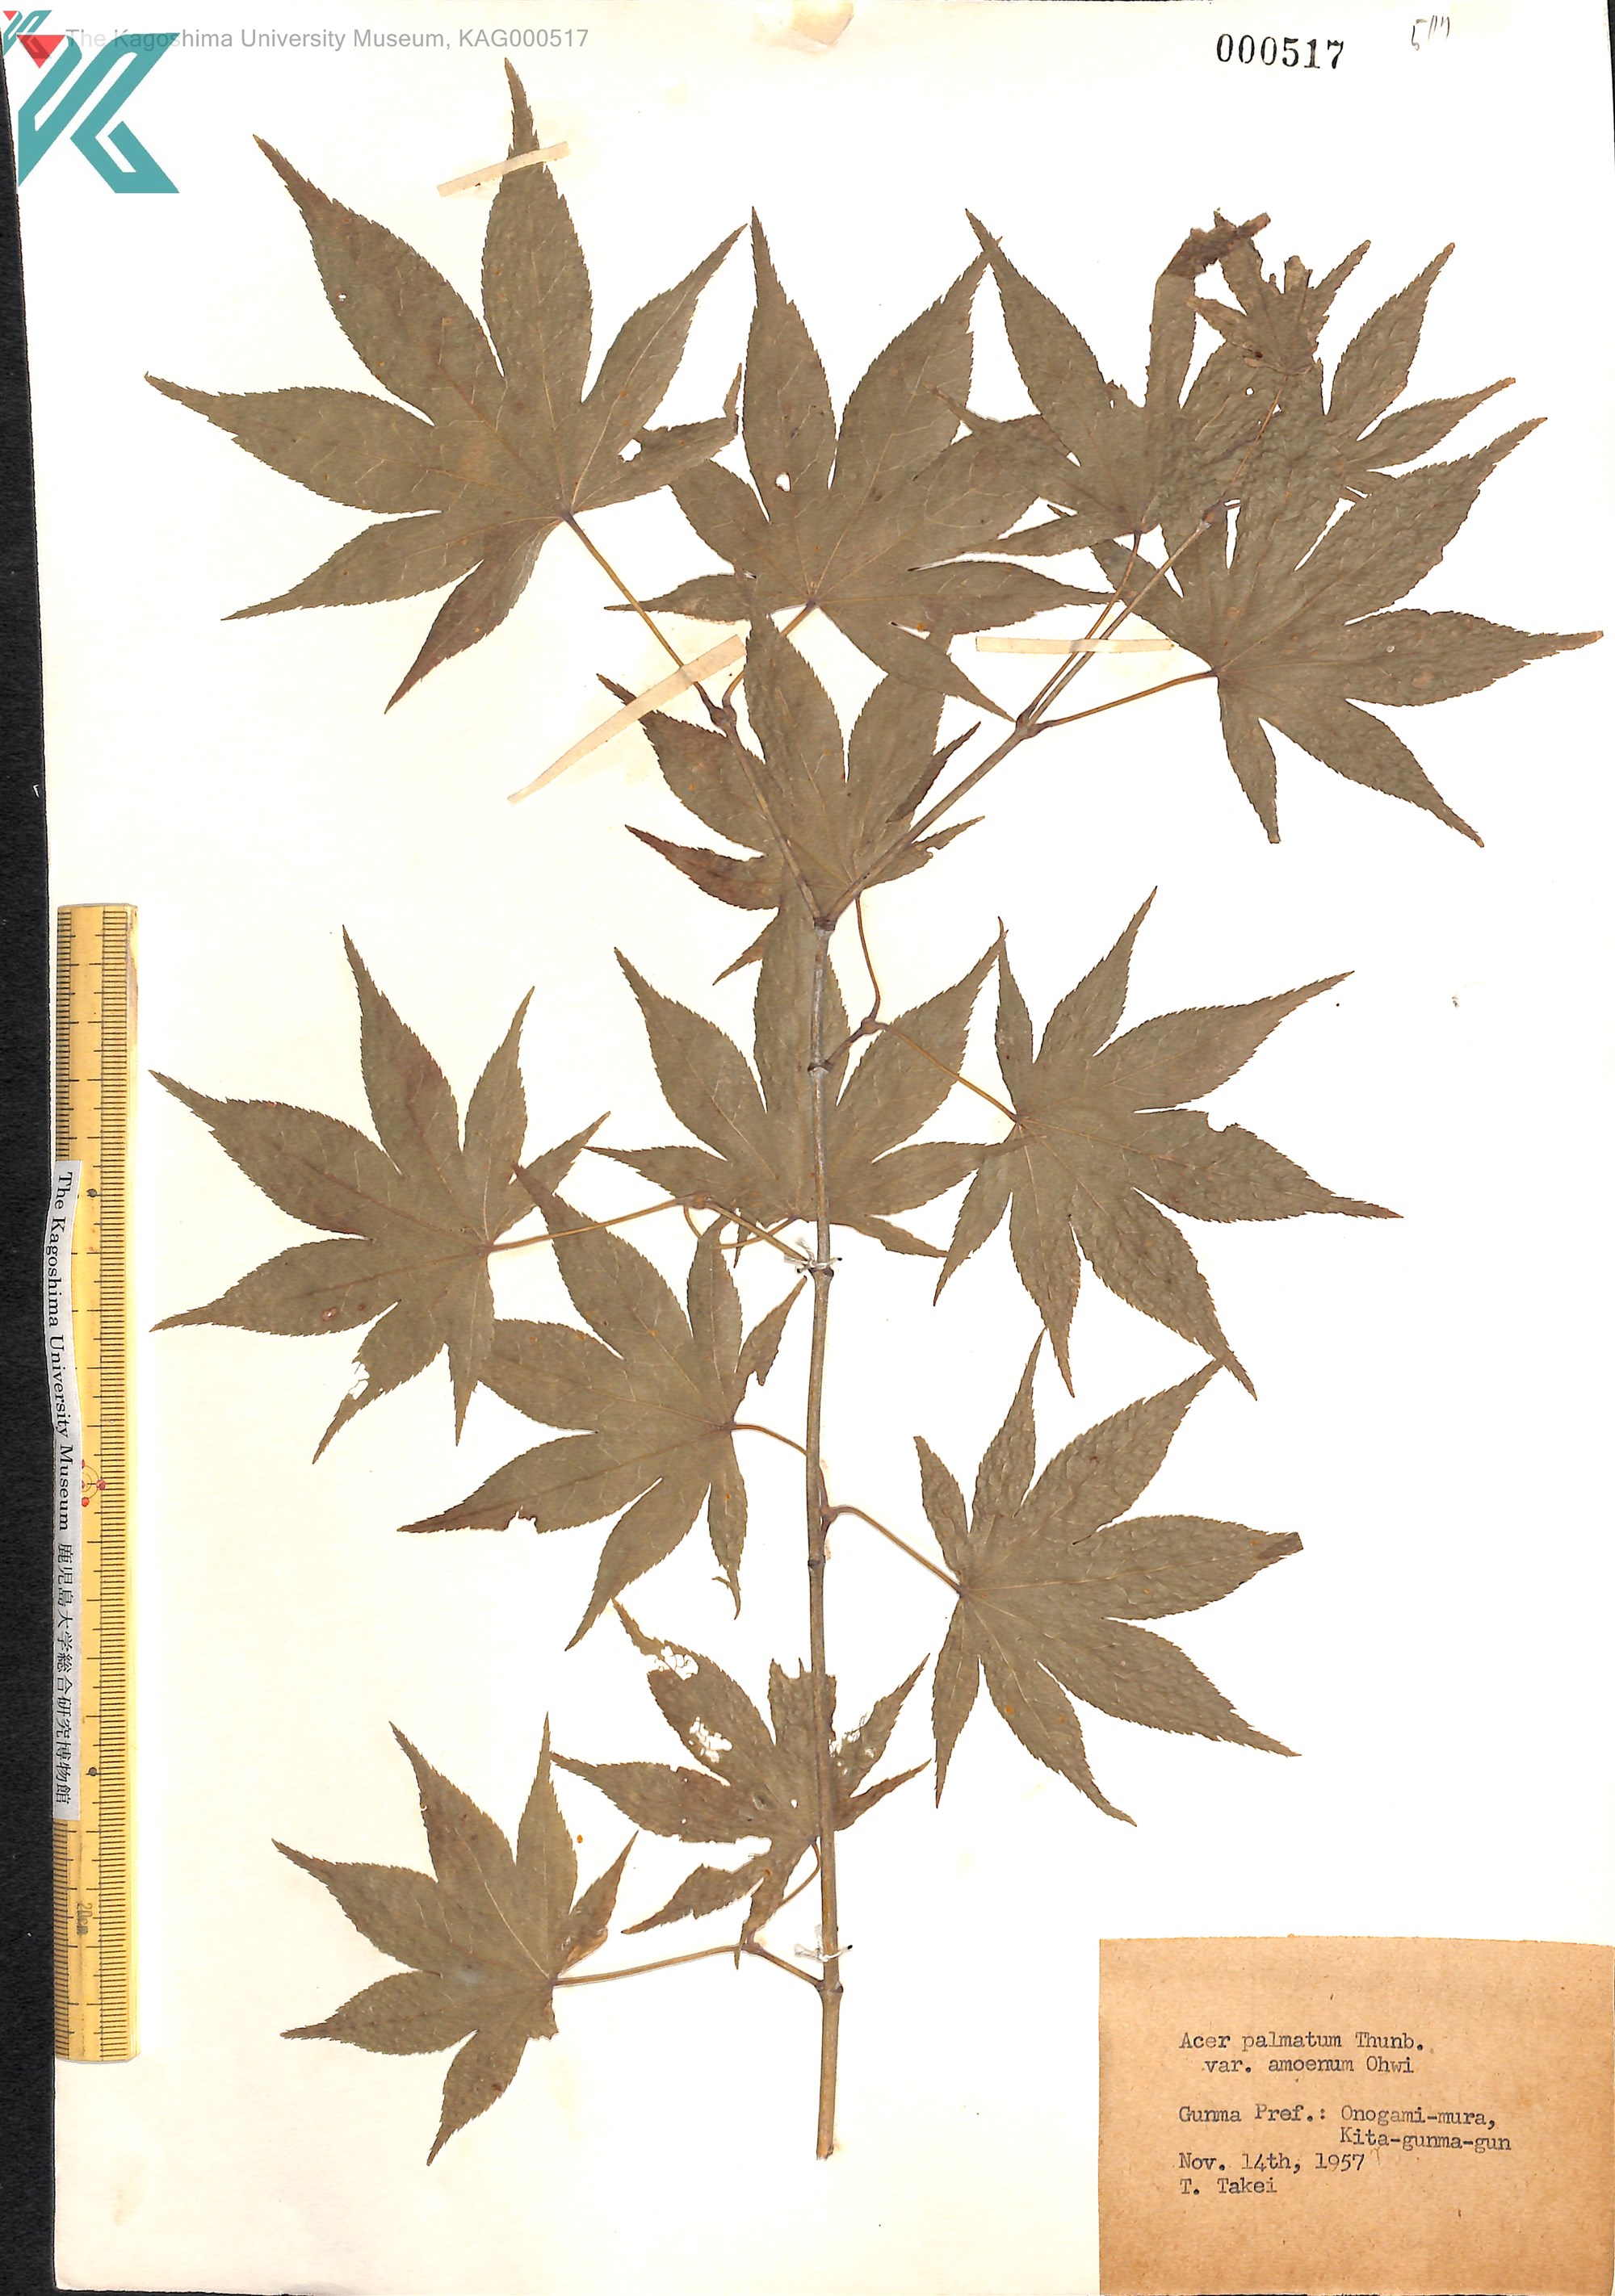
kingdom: Plantae
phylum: Tracheophyta
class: Magnoliopsida
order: Sapindales
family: Sapindaceae
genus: Acer
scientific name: Acer palmatum
